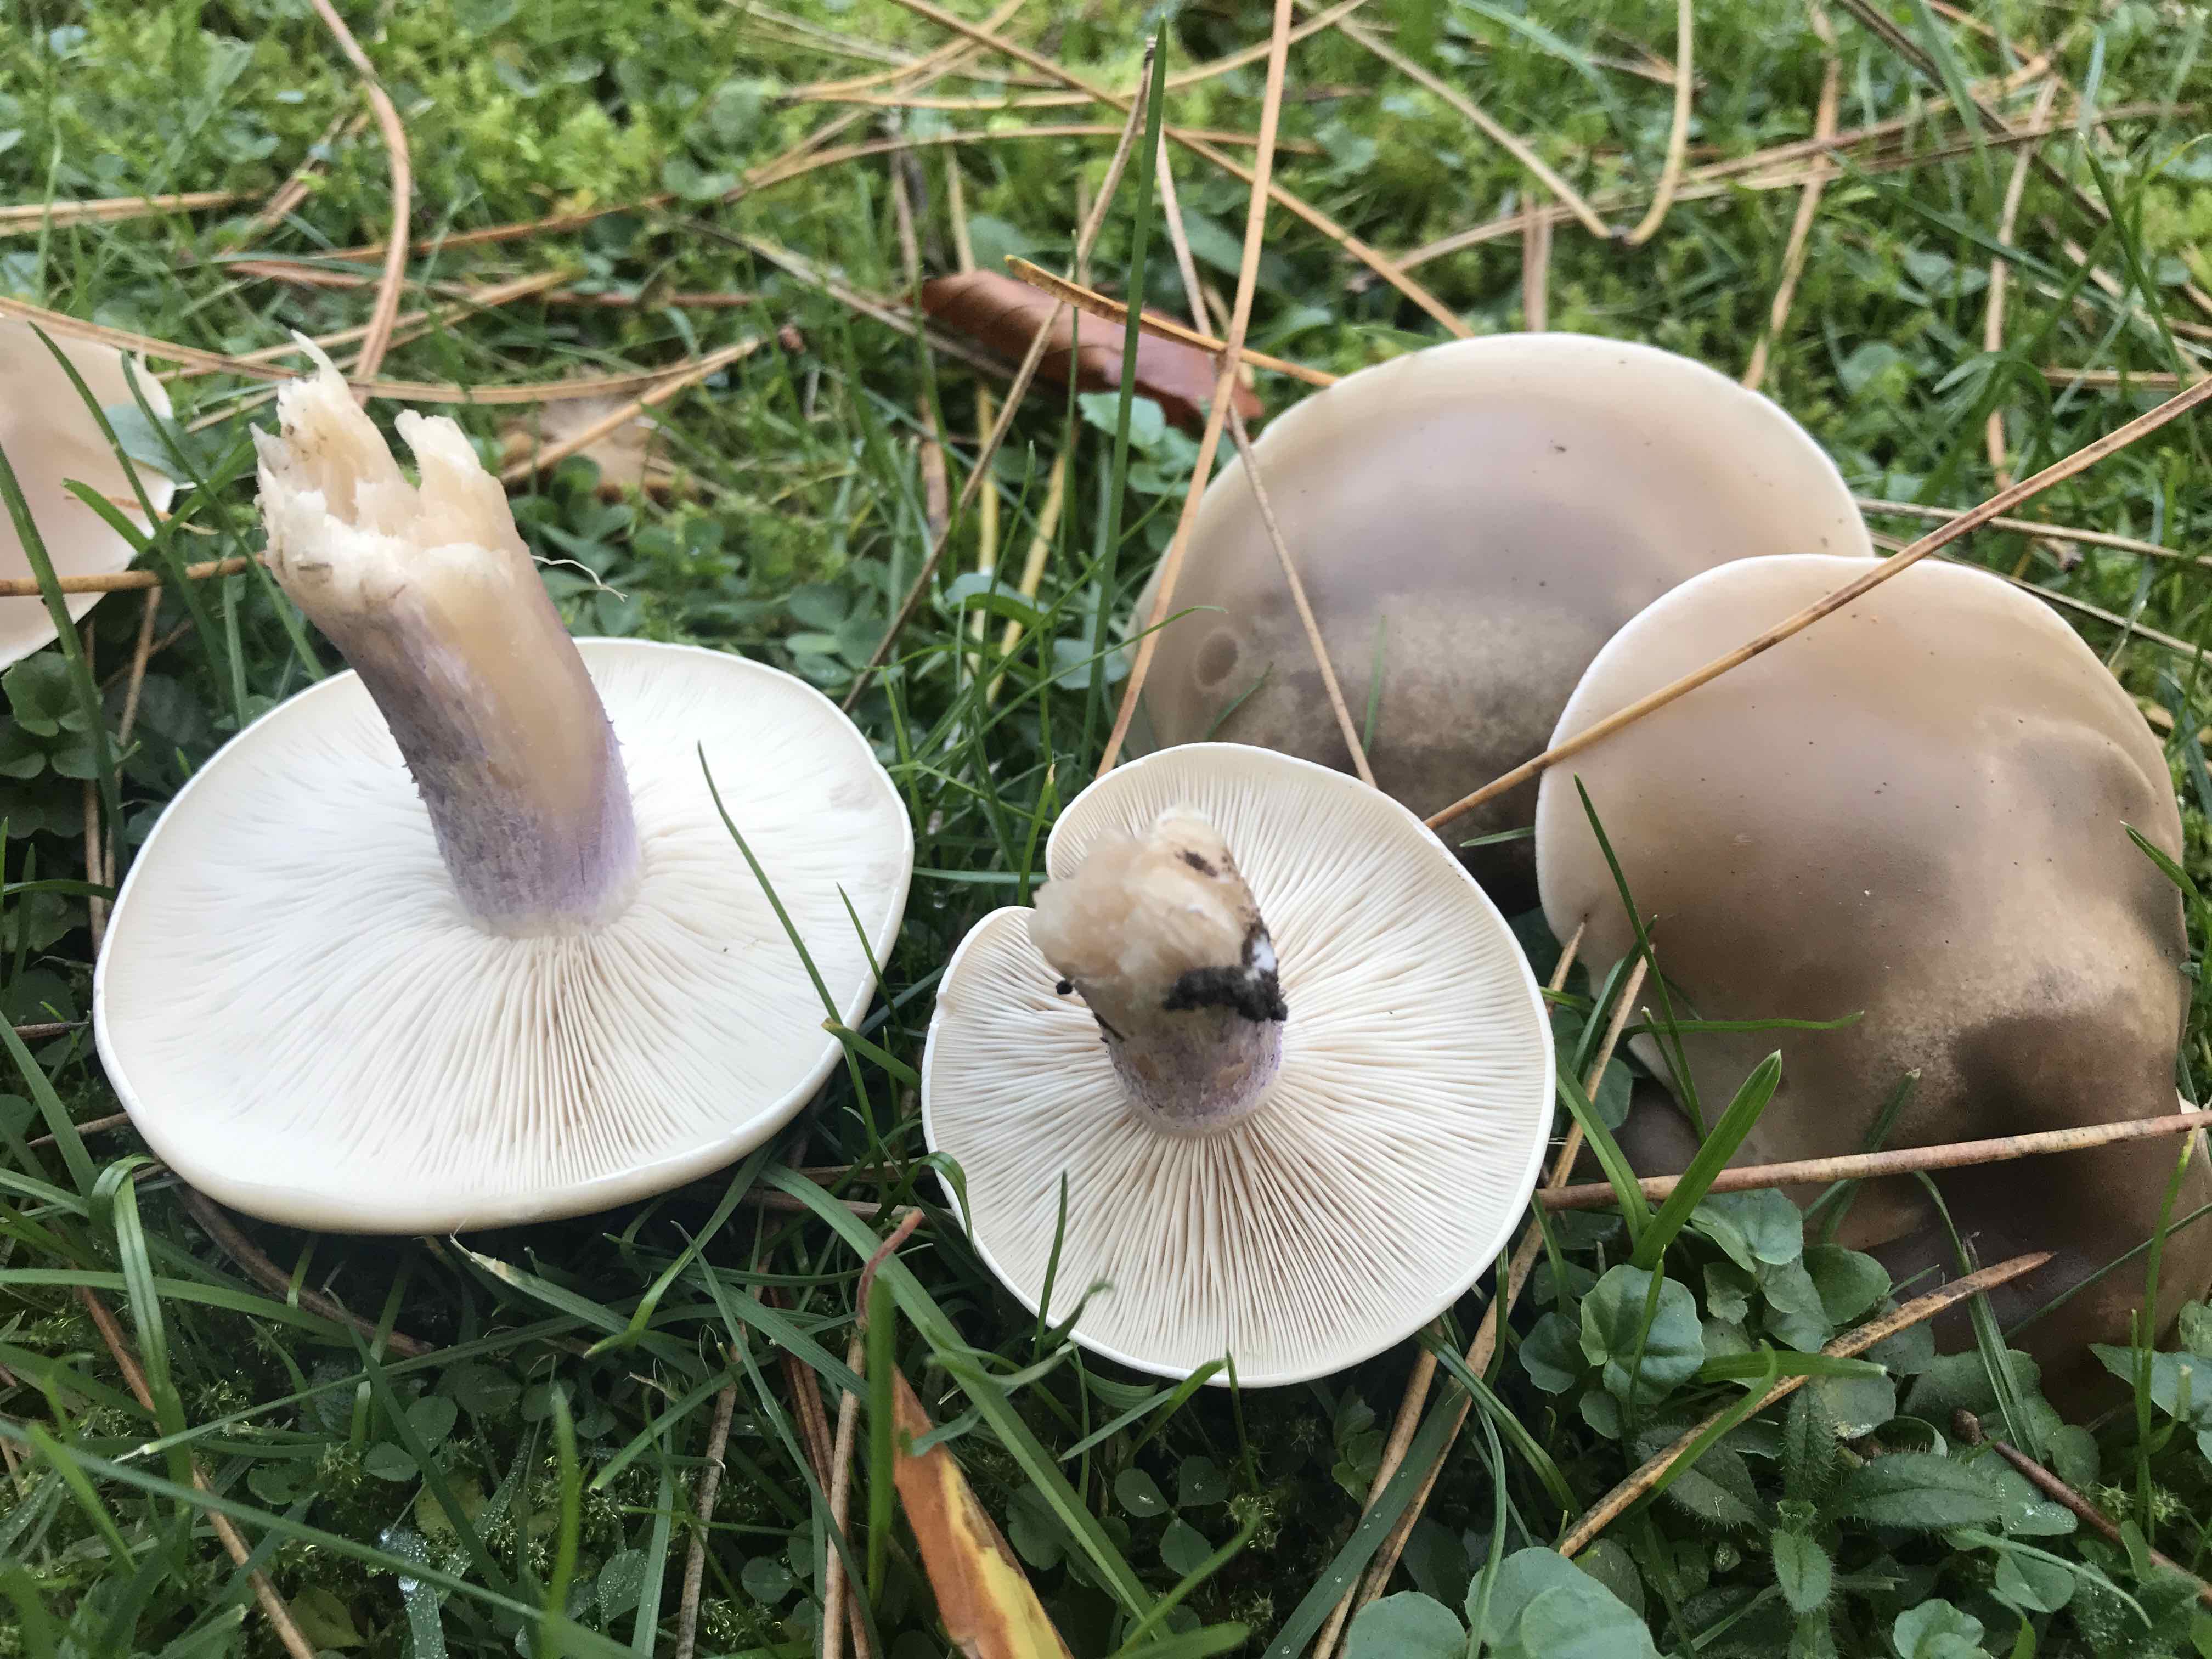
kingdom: Fungi
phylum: Basidiomycota
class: Agaricomycetes
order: Agaricales
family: Tricholomataceae
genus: Lepista
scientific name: Lepista personata
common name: bleg hekseringshat
